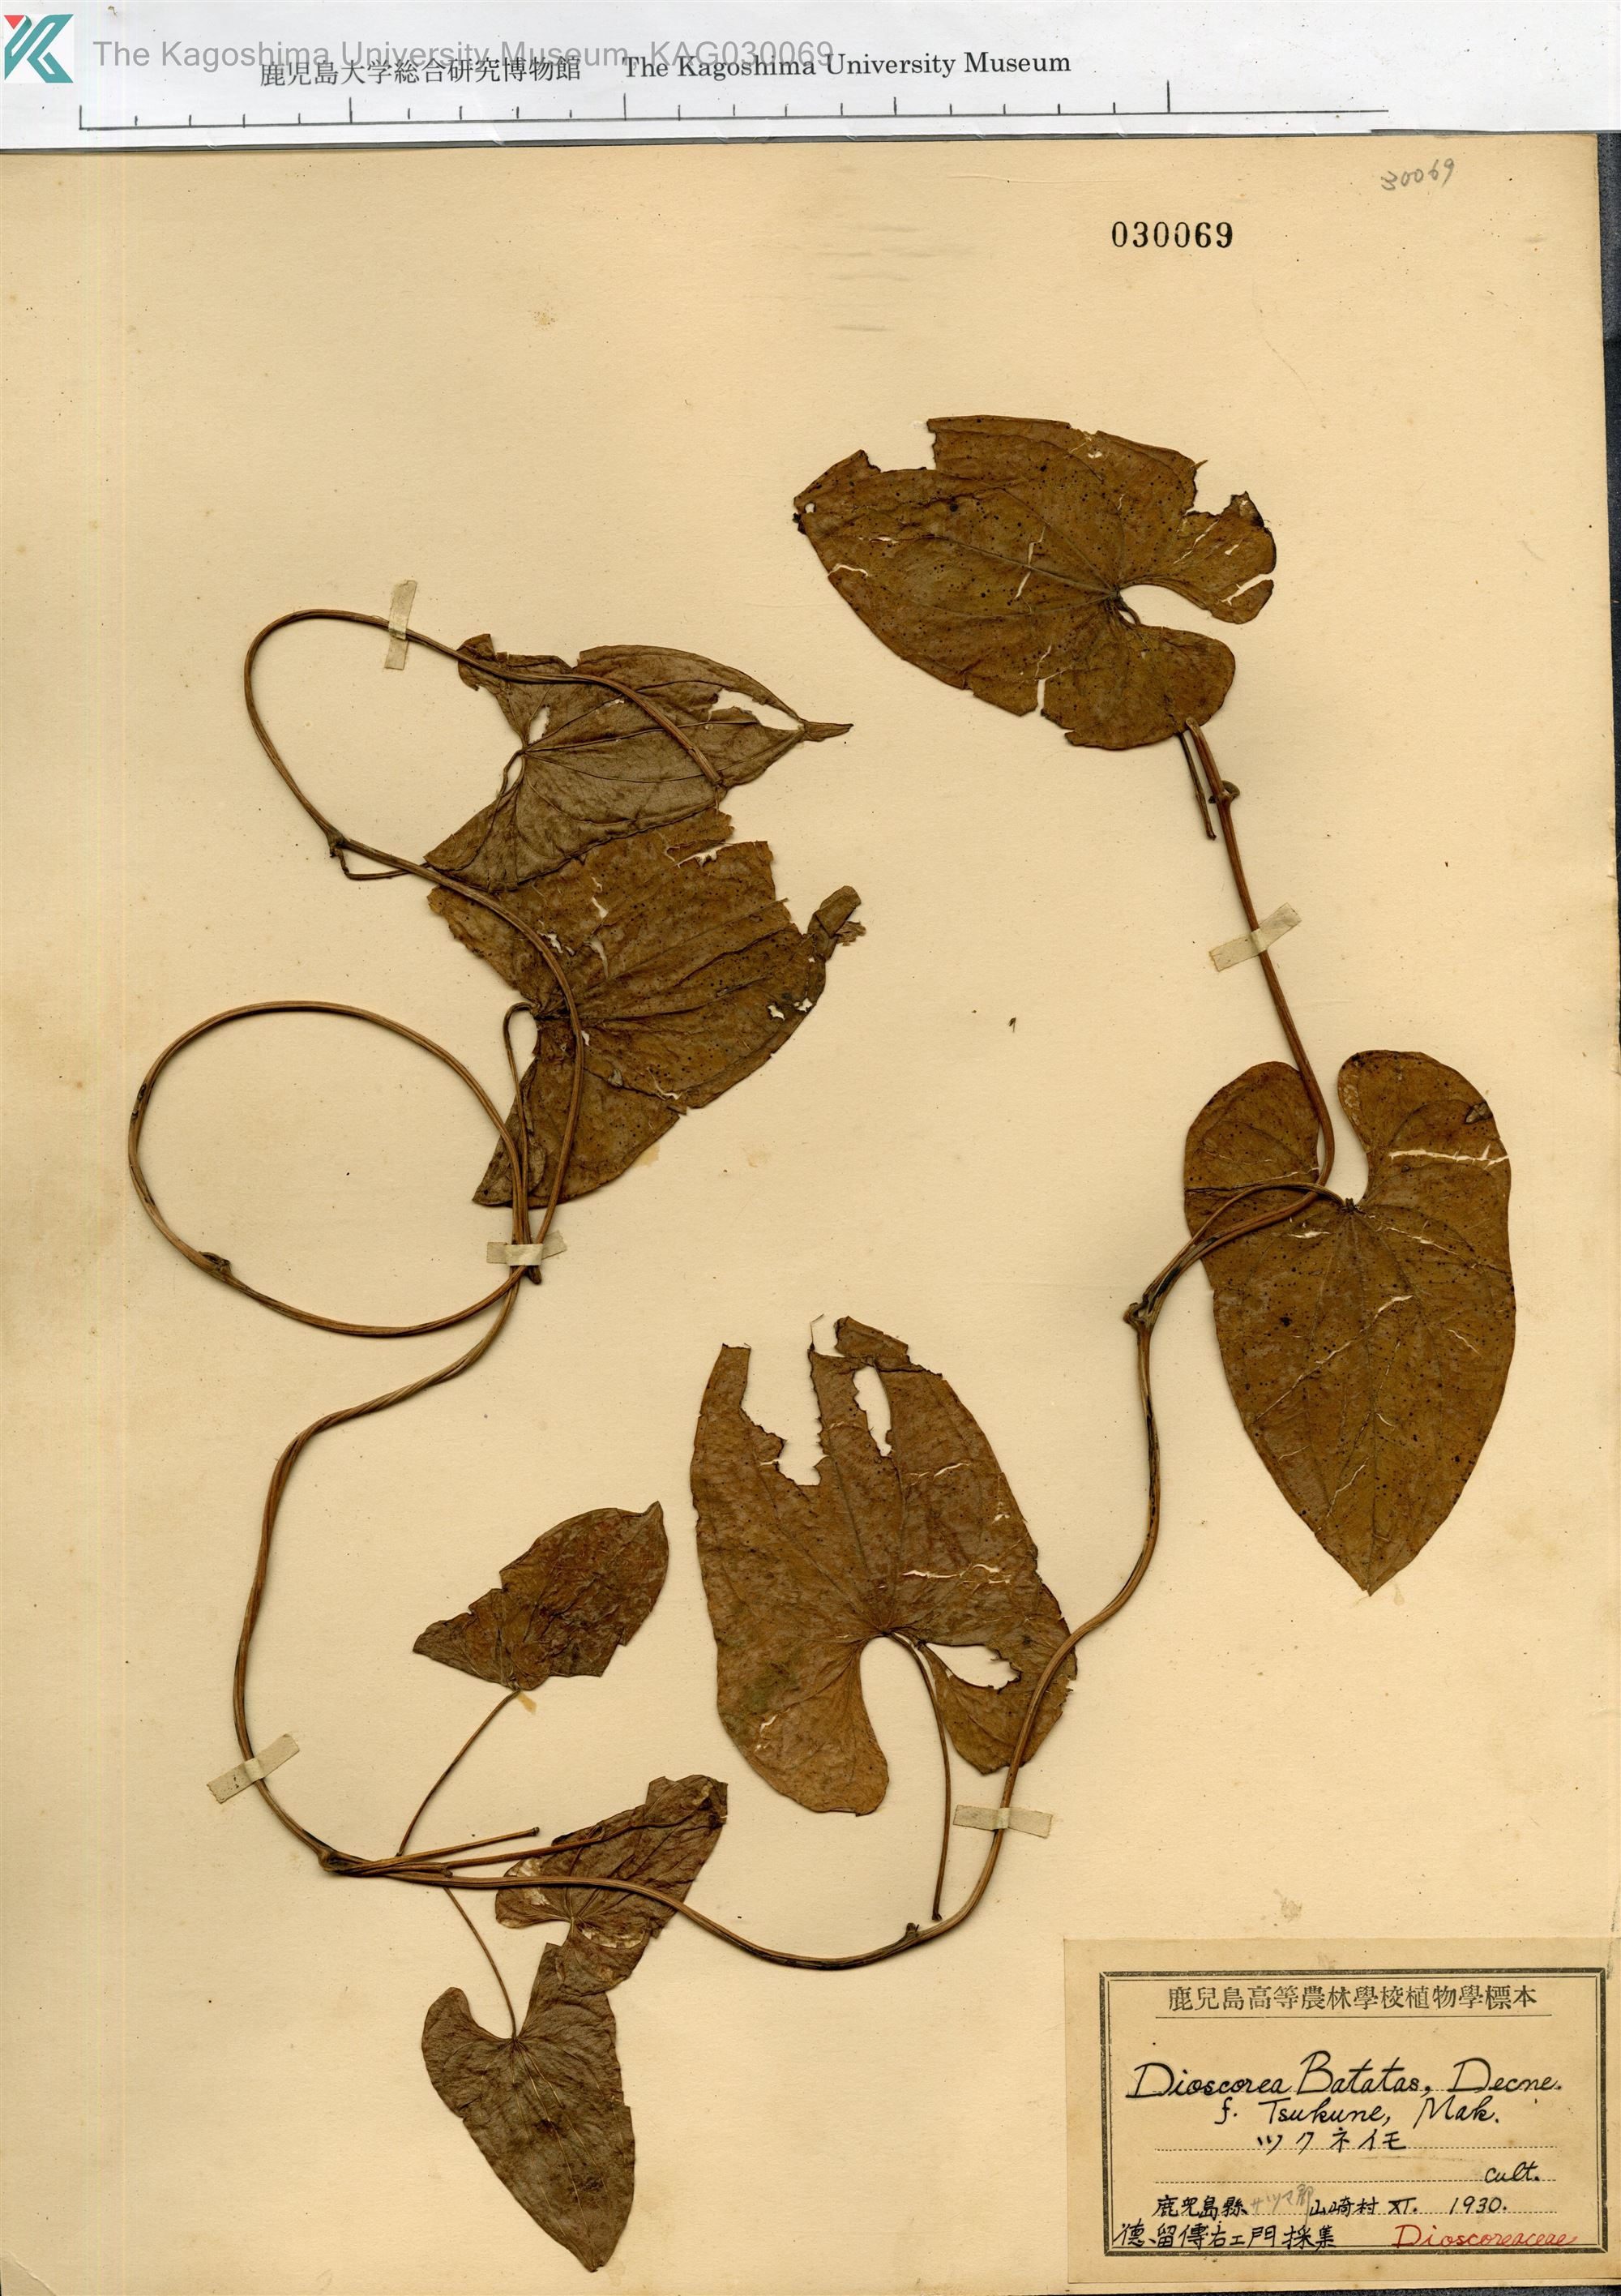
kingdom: Plantae
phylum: Tracheophyta
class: Liliopsida
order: Dioscoreales
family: Dioscoreaceae
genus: Dioscorea
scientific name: Dioscorea polystachya
